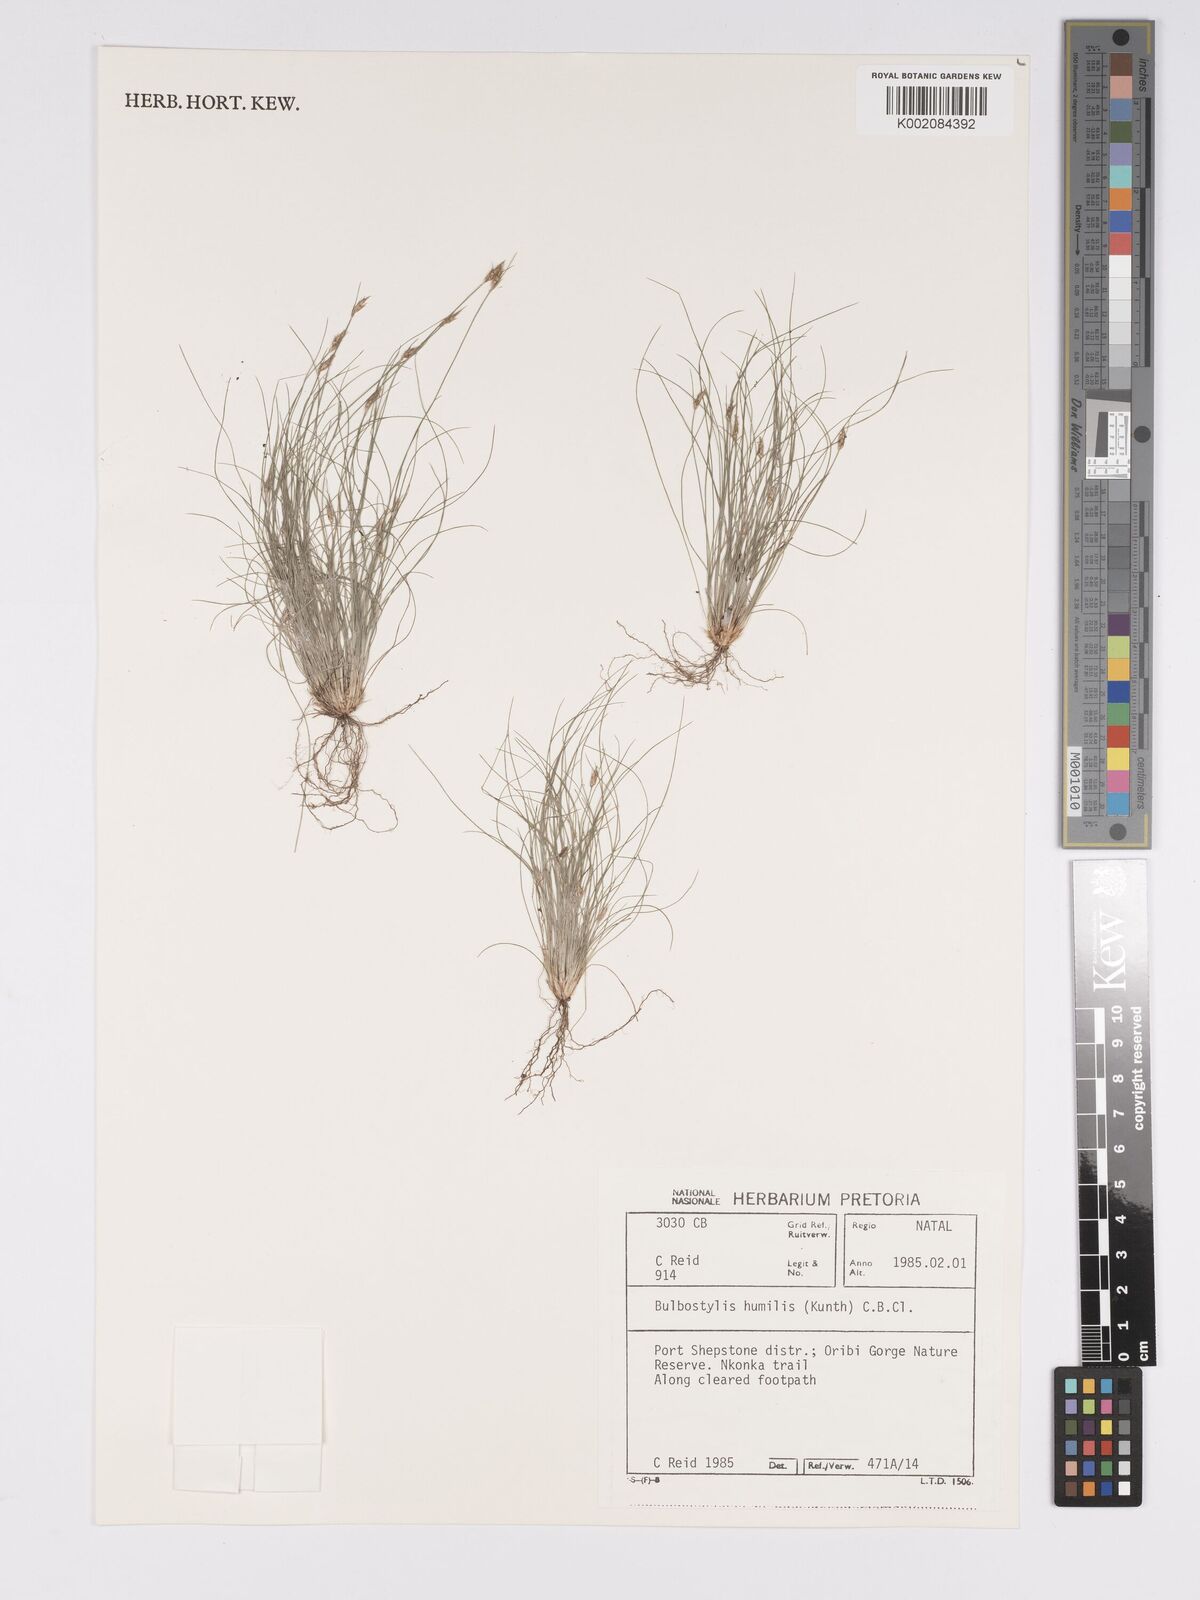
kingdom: Plantae
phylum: Tracheophyta
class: Liliopsida
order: Poales
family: Cyperaceae
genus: Bulbostylis
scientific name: Bulbostylis humilis
